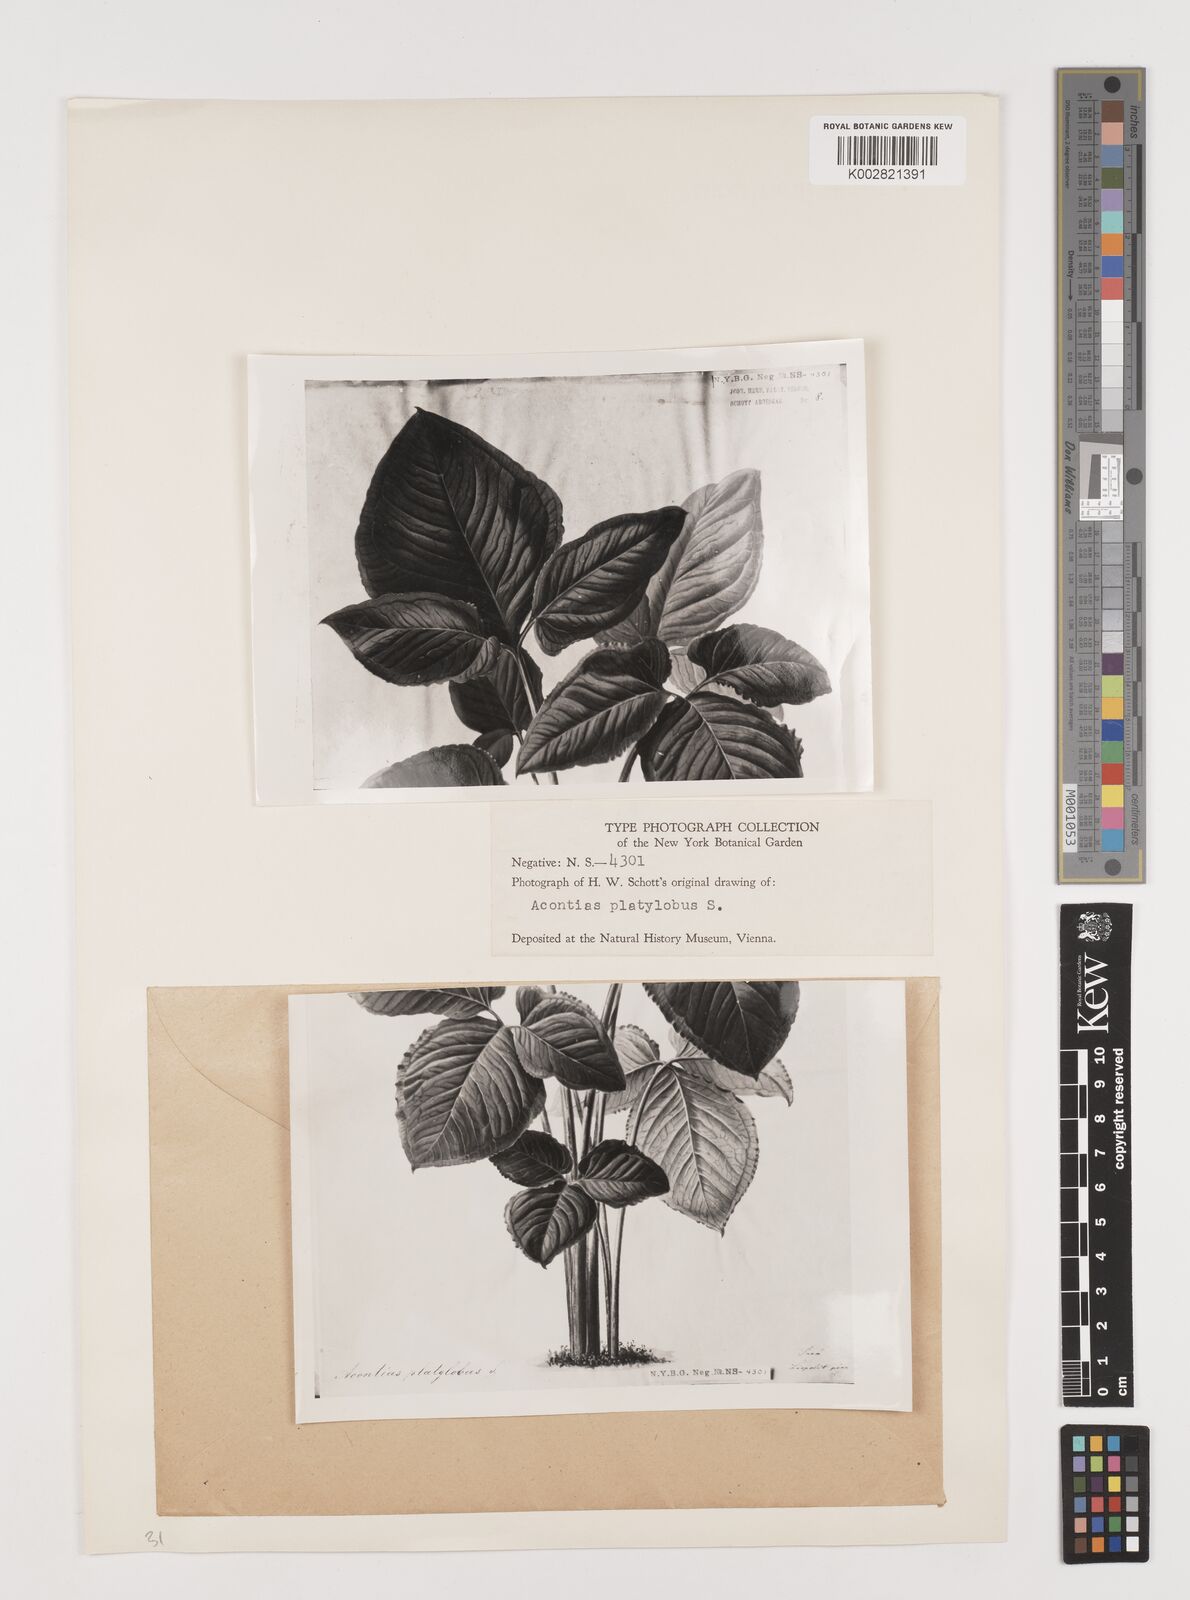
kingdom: Plantae
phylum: Tracheophyta
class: Liliopsida
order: Alismatales
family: Araceae
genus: Xanthosoma
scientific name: Xanthosoma platylobum
